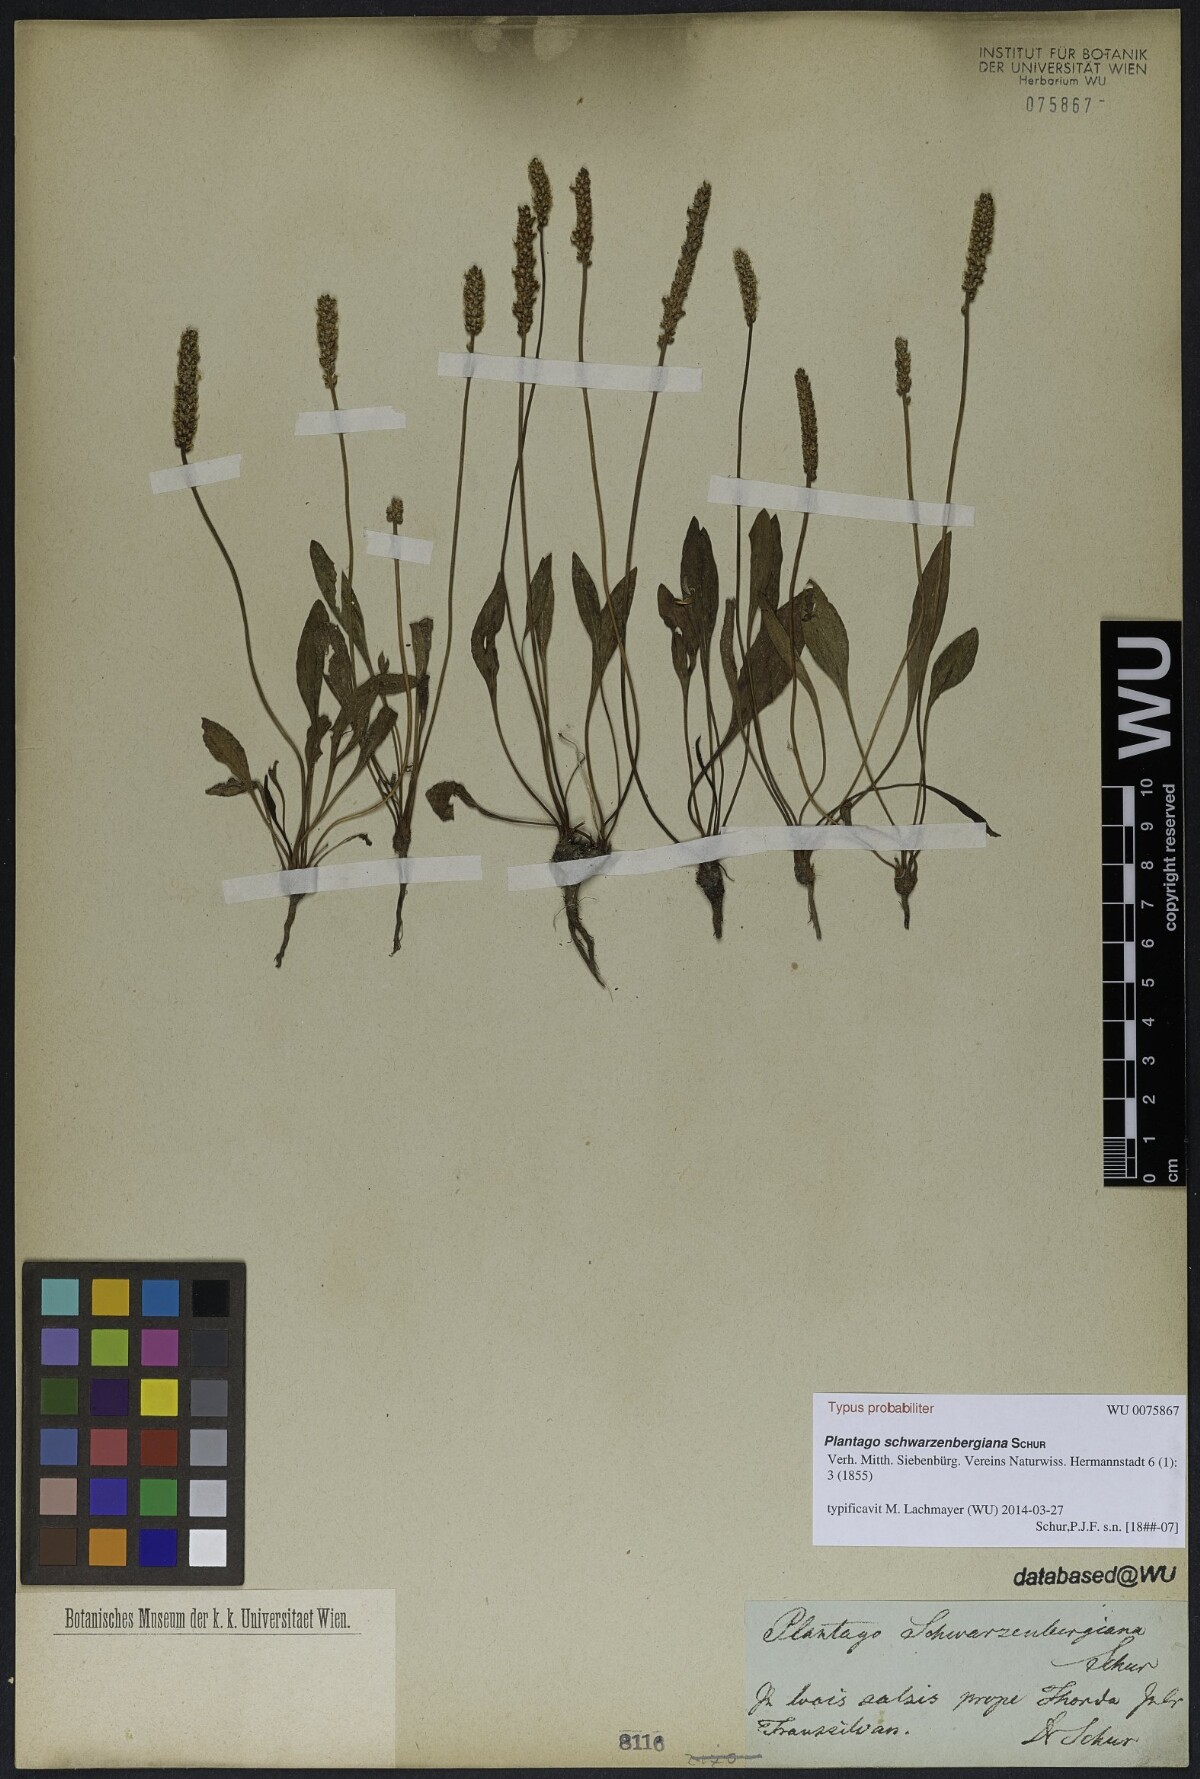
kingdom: Plantae
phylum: Tracheophyta
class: Magnoliopsida
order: Lamiales
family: Plantaginaceae
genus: Plantago
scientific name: Plantago schwarzenbergiana
